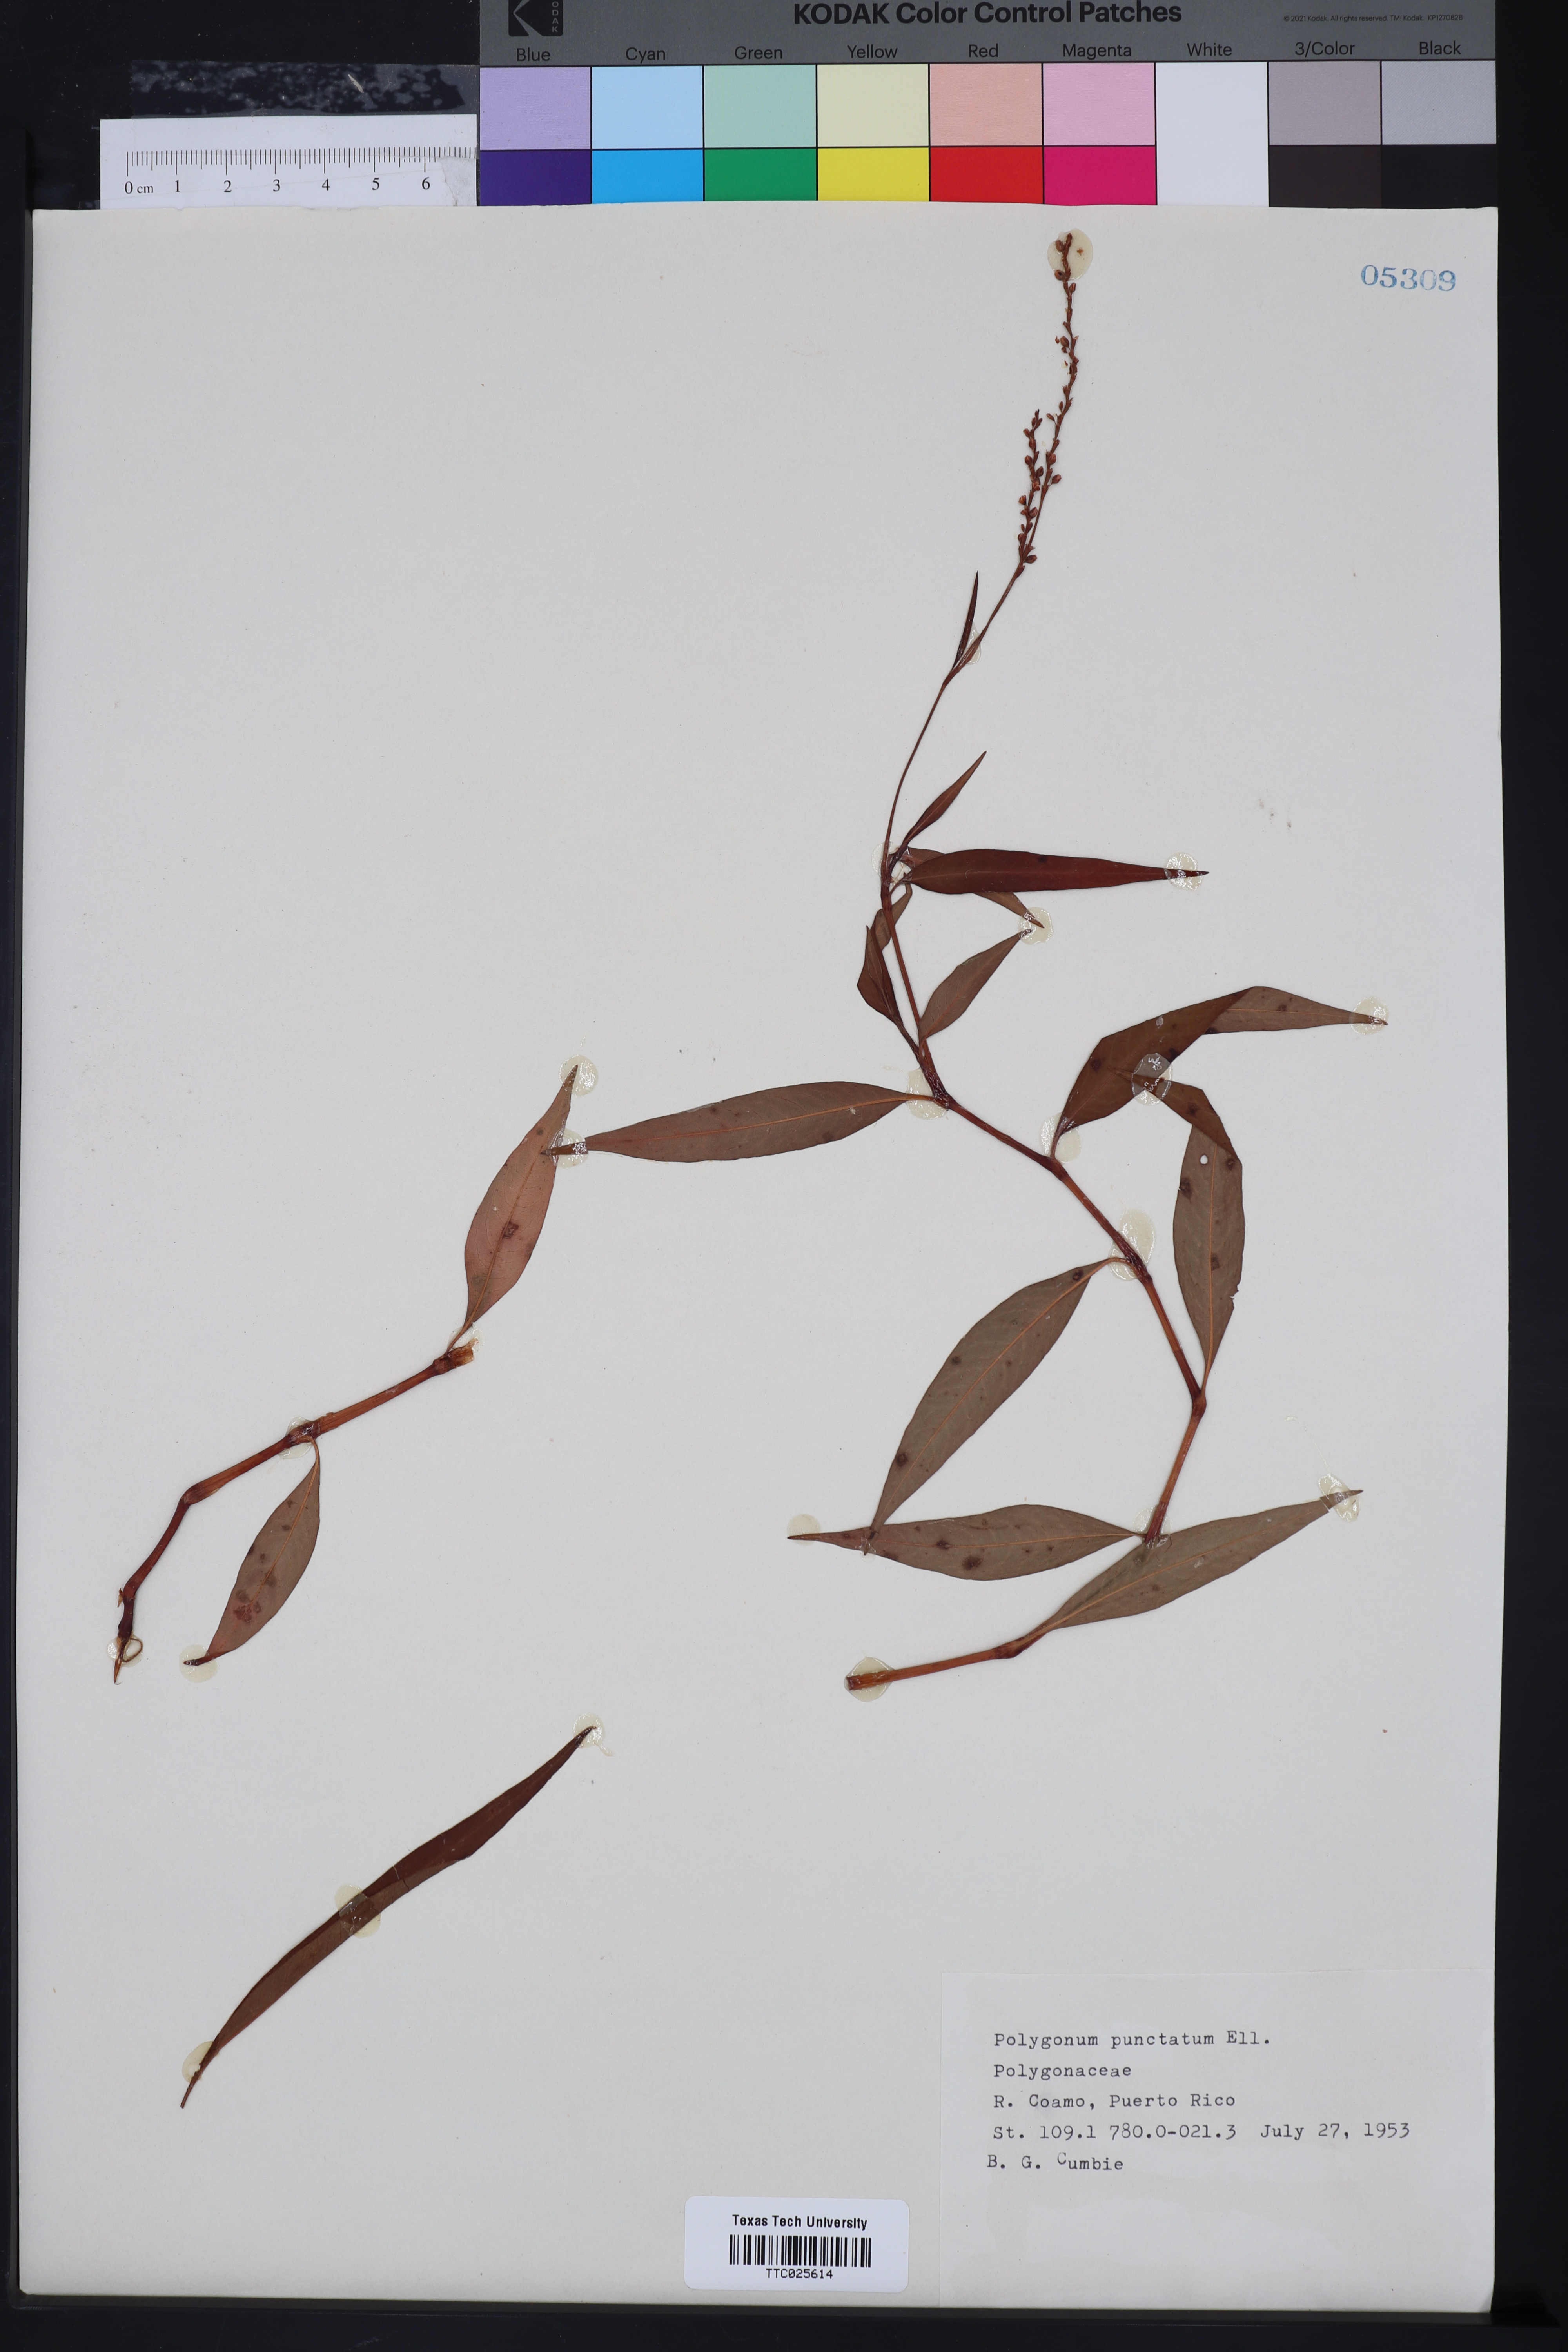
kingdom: Plantae
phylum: Tracheophyta
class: Magnoliopsida
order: Caryophyllales
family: Polygonaceae
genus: Persicaria
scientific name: Persicaria punctata
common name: Dotted smartweed
